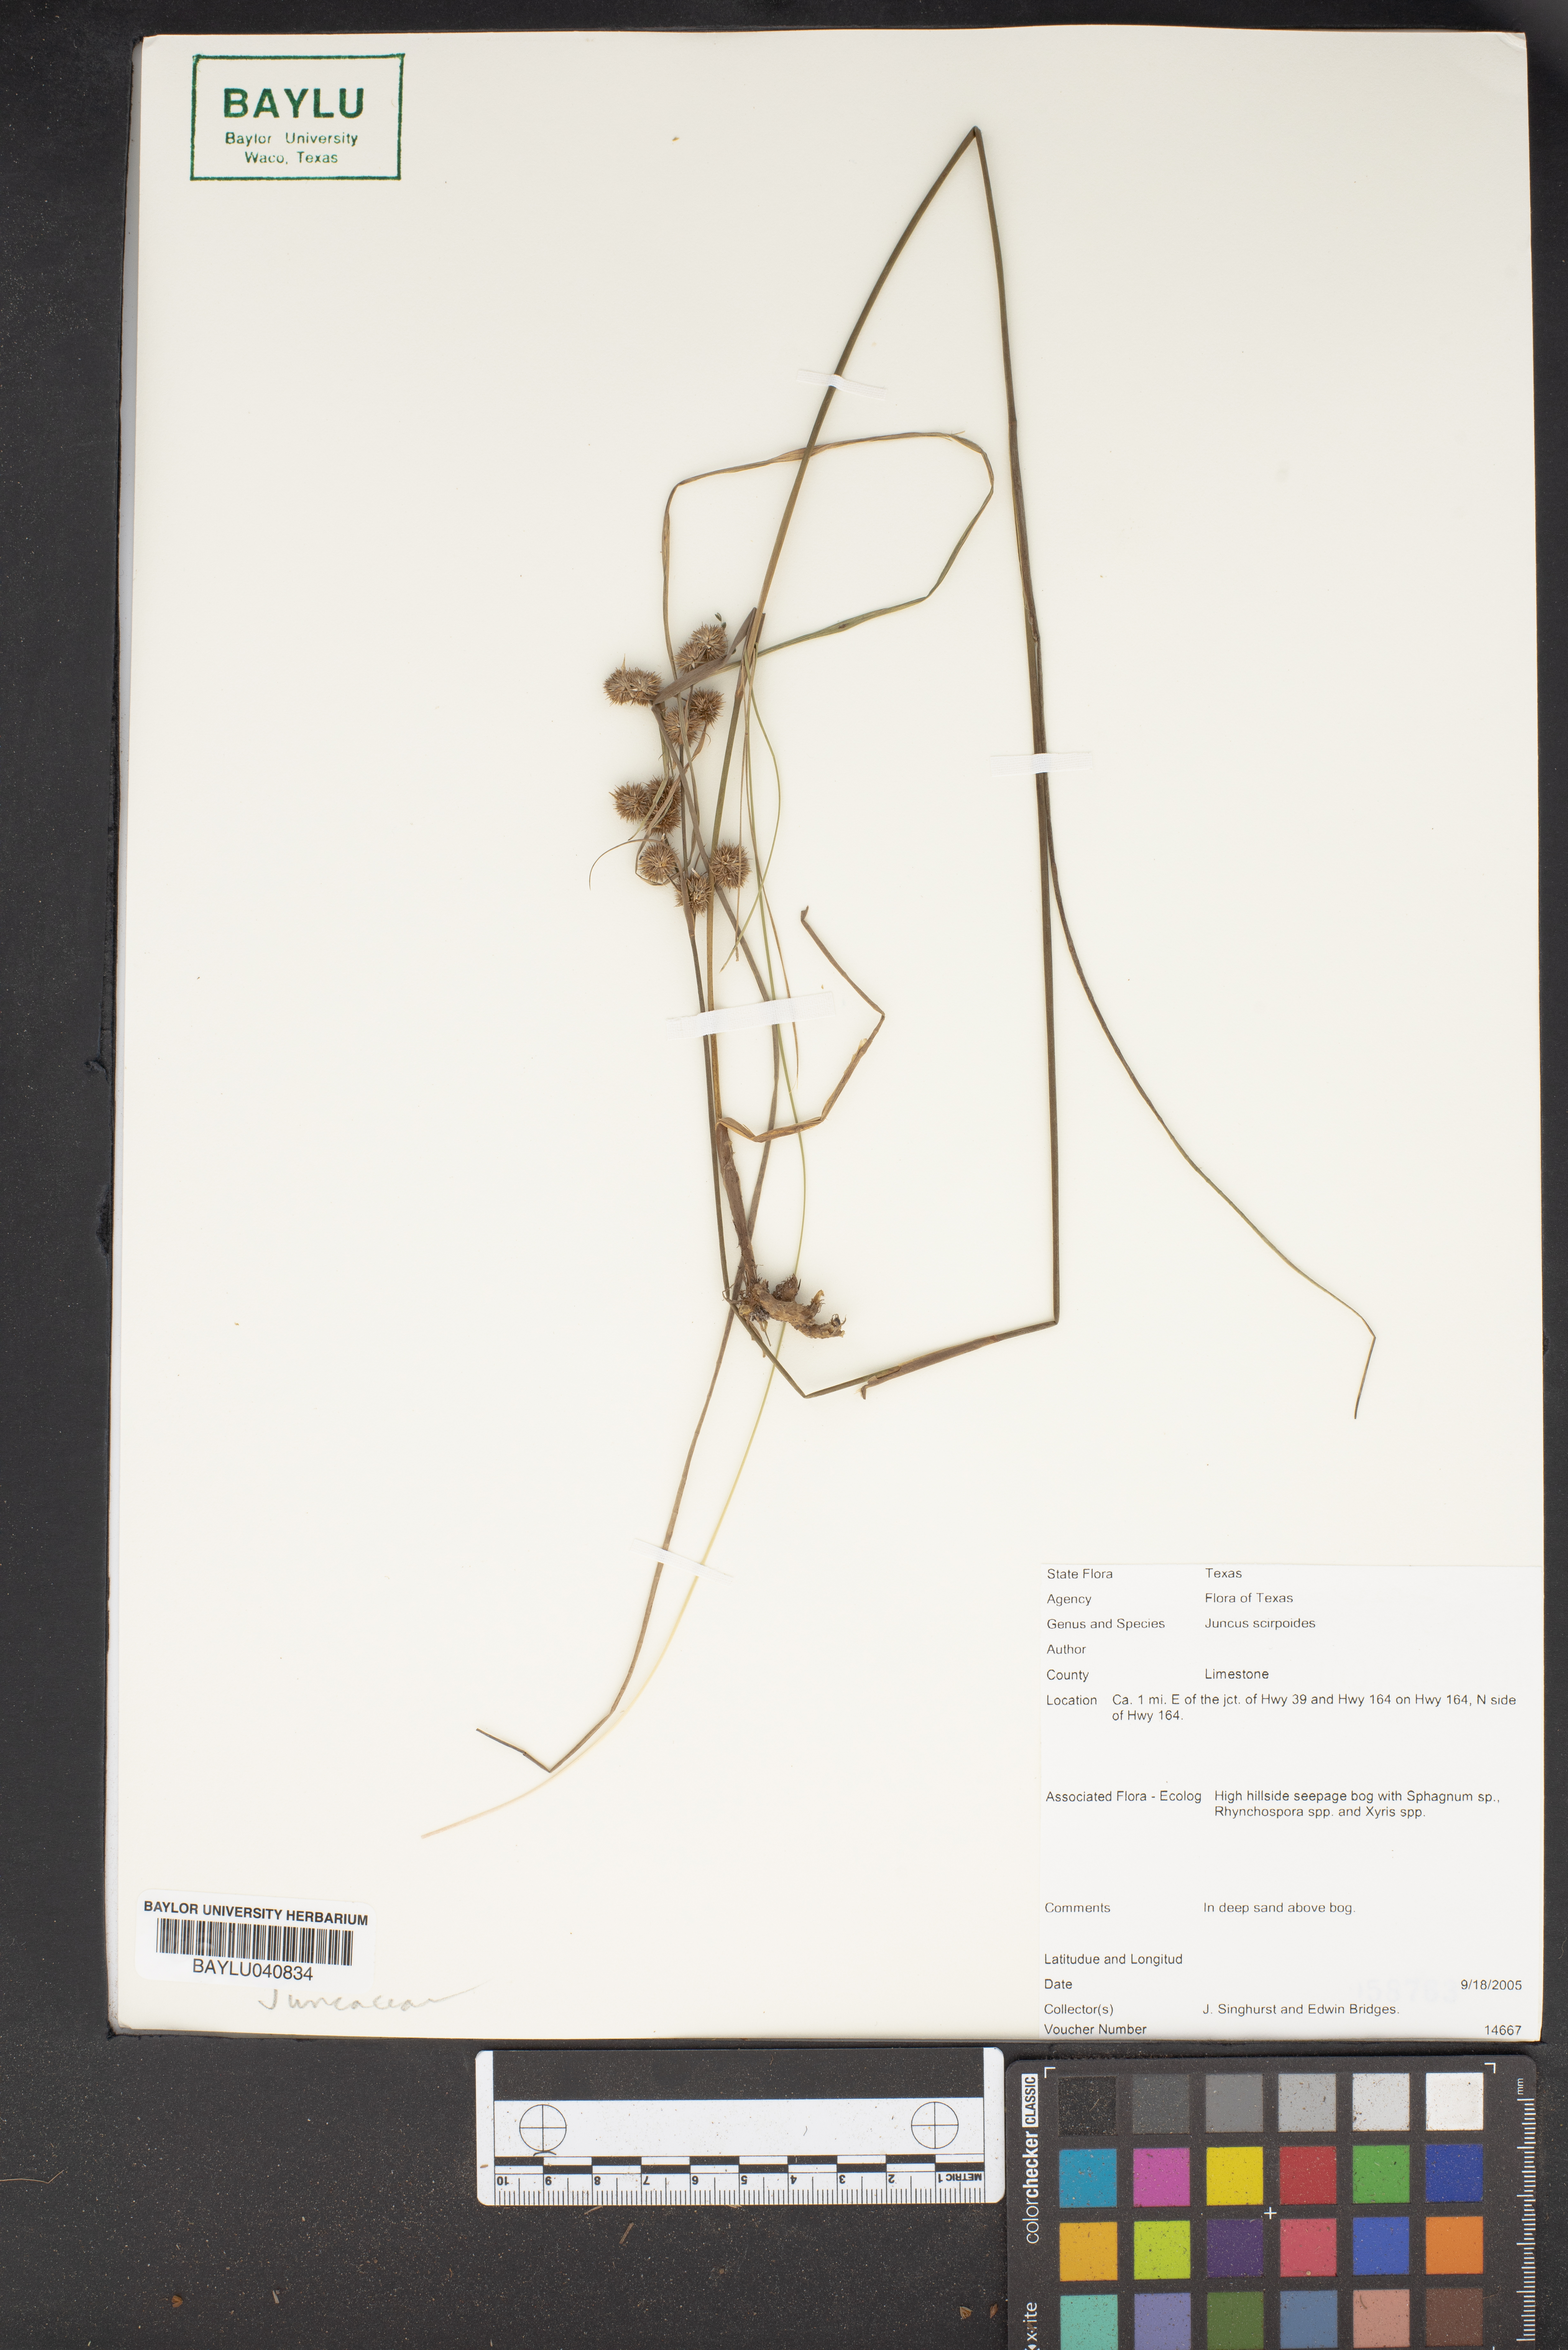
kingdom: Plantae
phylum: Tracheophyta
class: Liliopsida
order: Poales
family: Juncaceae
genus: Juncus
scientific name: Juncus scirpoides
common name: Needlepod rush
